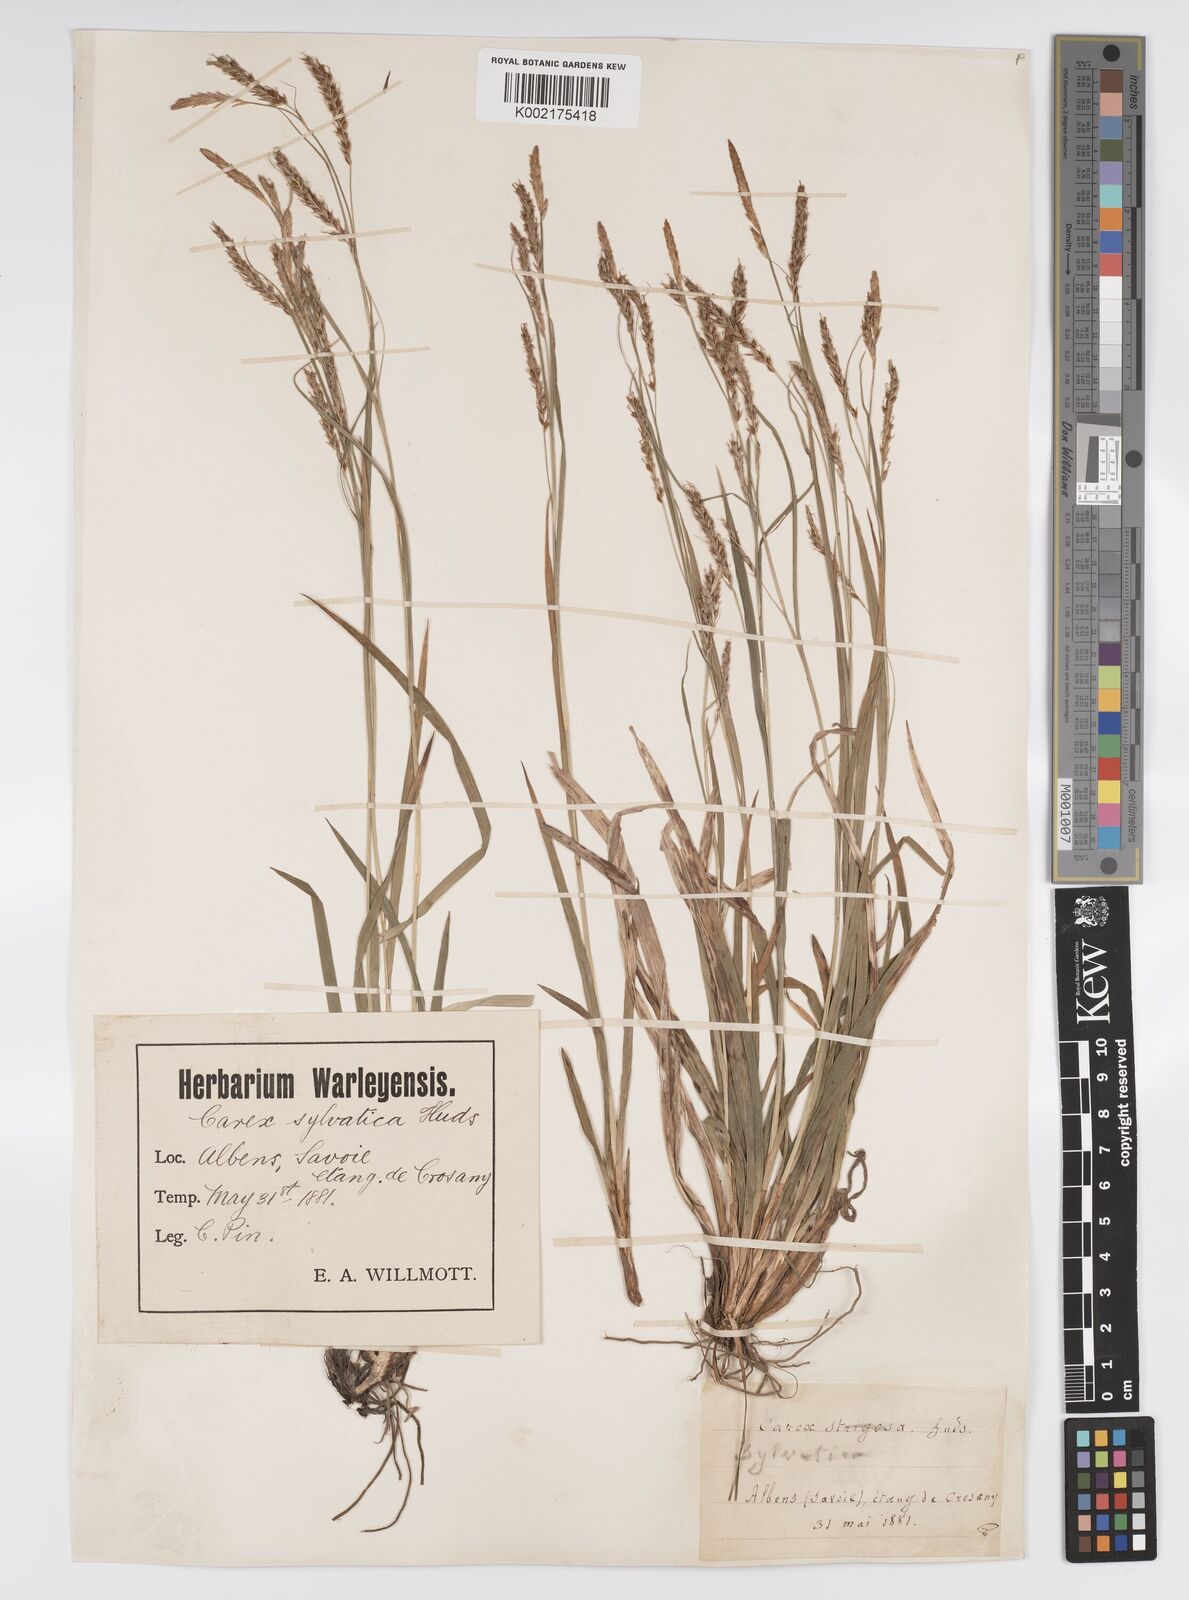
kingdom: Plantae
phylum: Tracheophyta
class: Liliopsida
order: Poales
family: Cyperaceae
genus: Carex
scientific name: Carex sylvatica
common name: Wood-sedge
